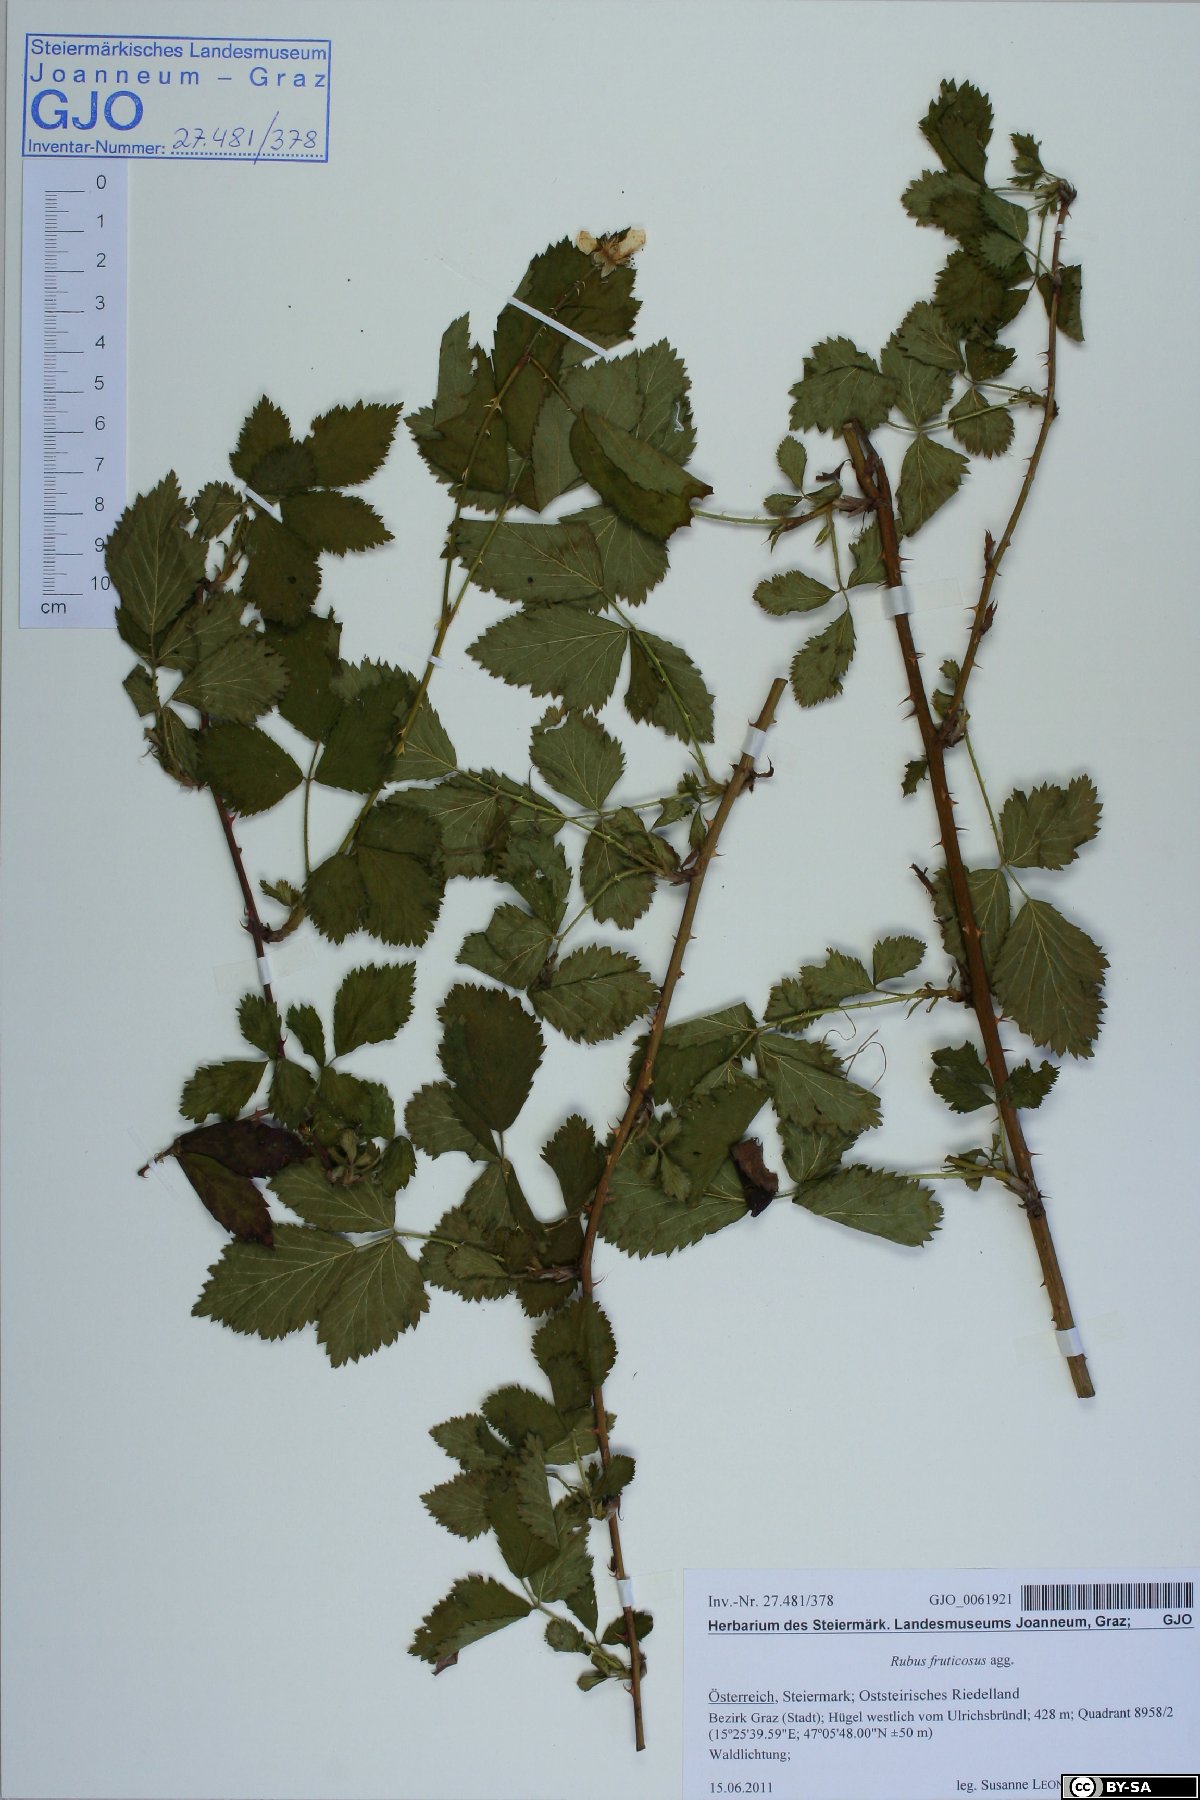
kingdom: Plantae
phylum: Tracheophyta
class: Magnoliopsida
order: Rosales
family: Rosaceae
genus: Rubus
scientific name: Rubus fruticosus
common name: Blackberry, bramble
